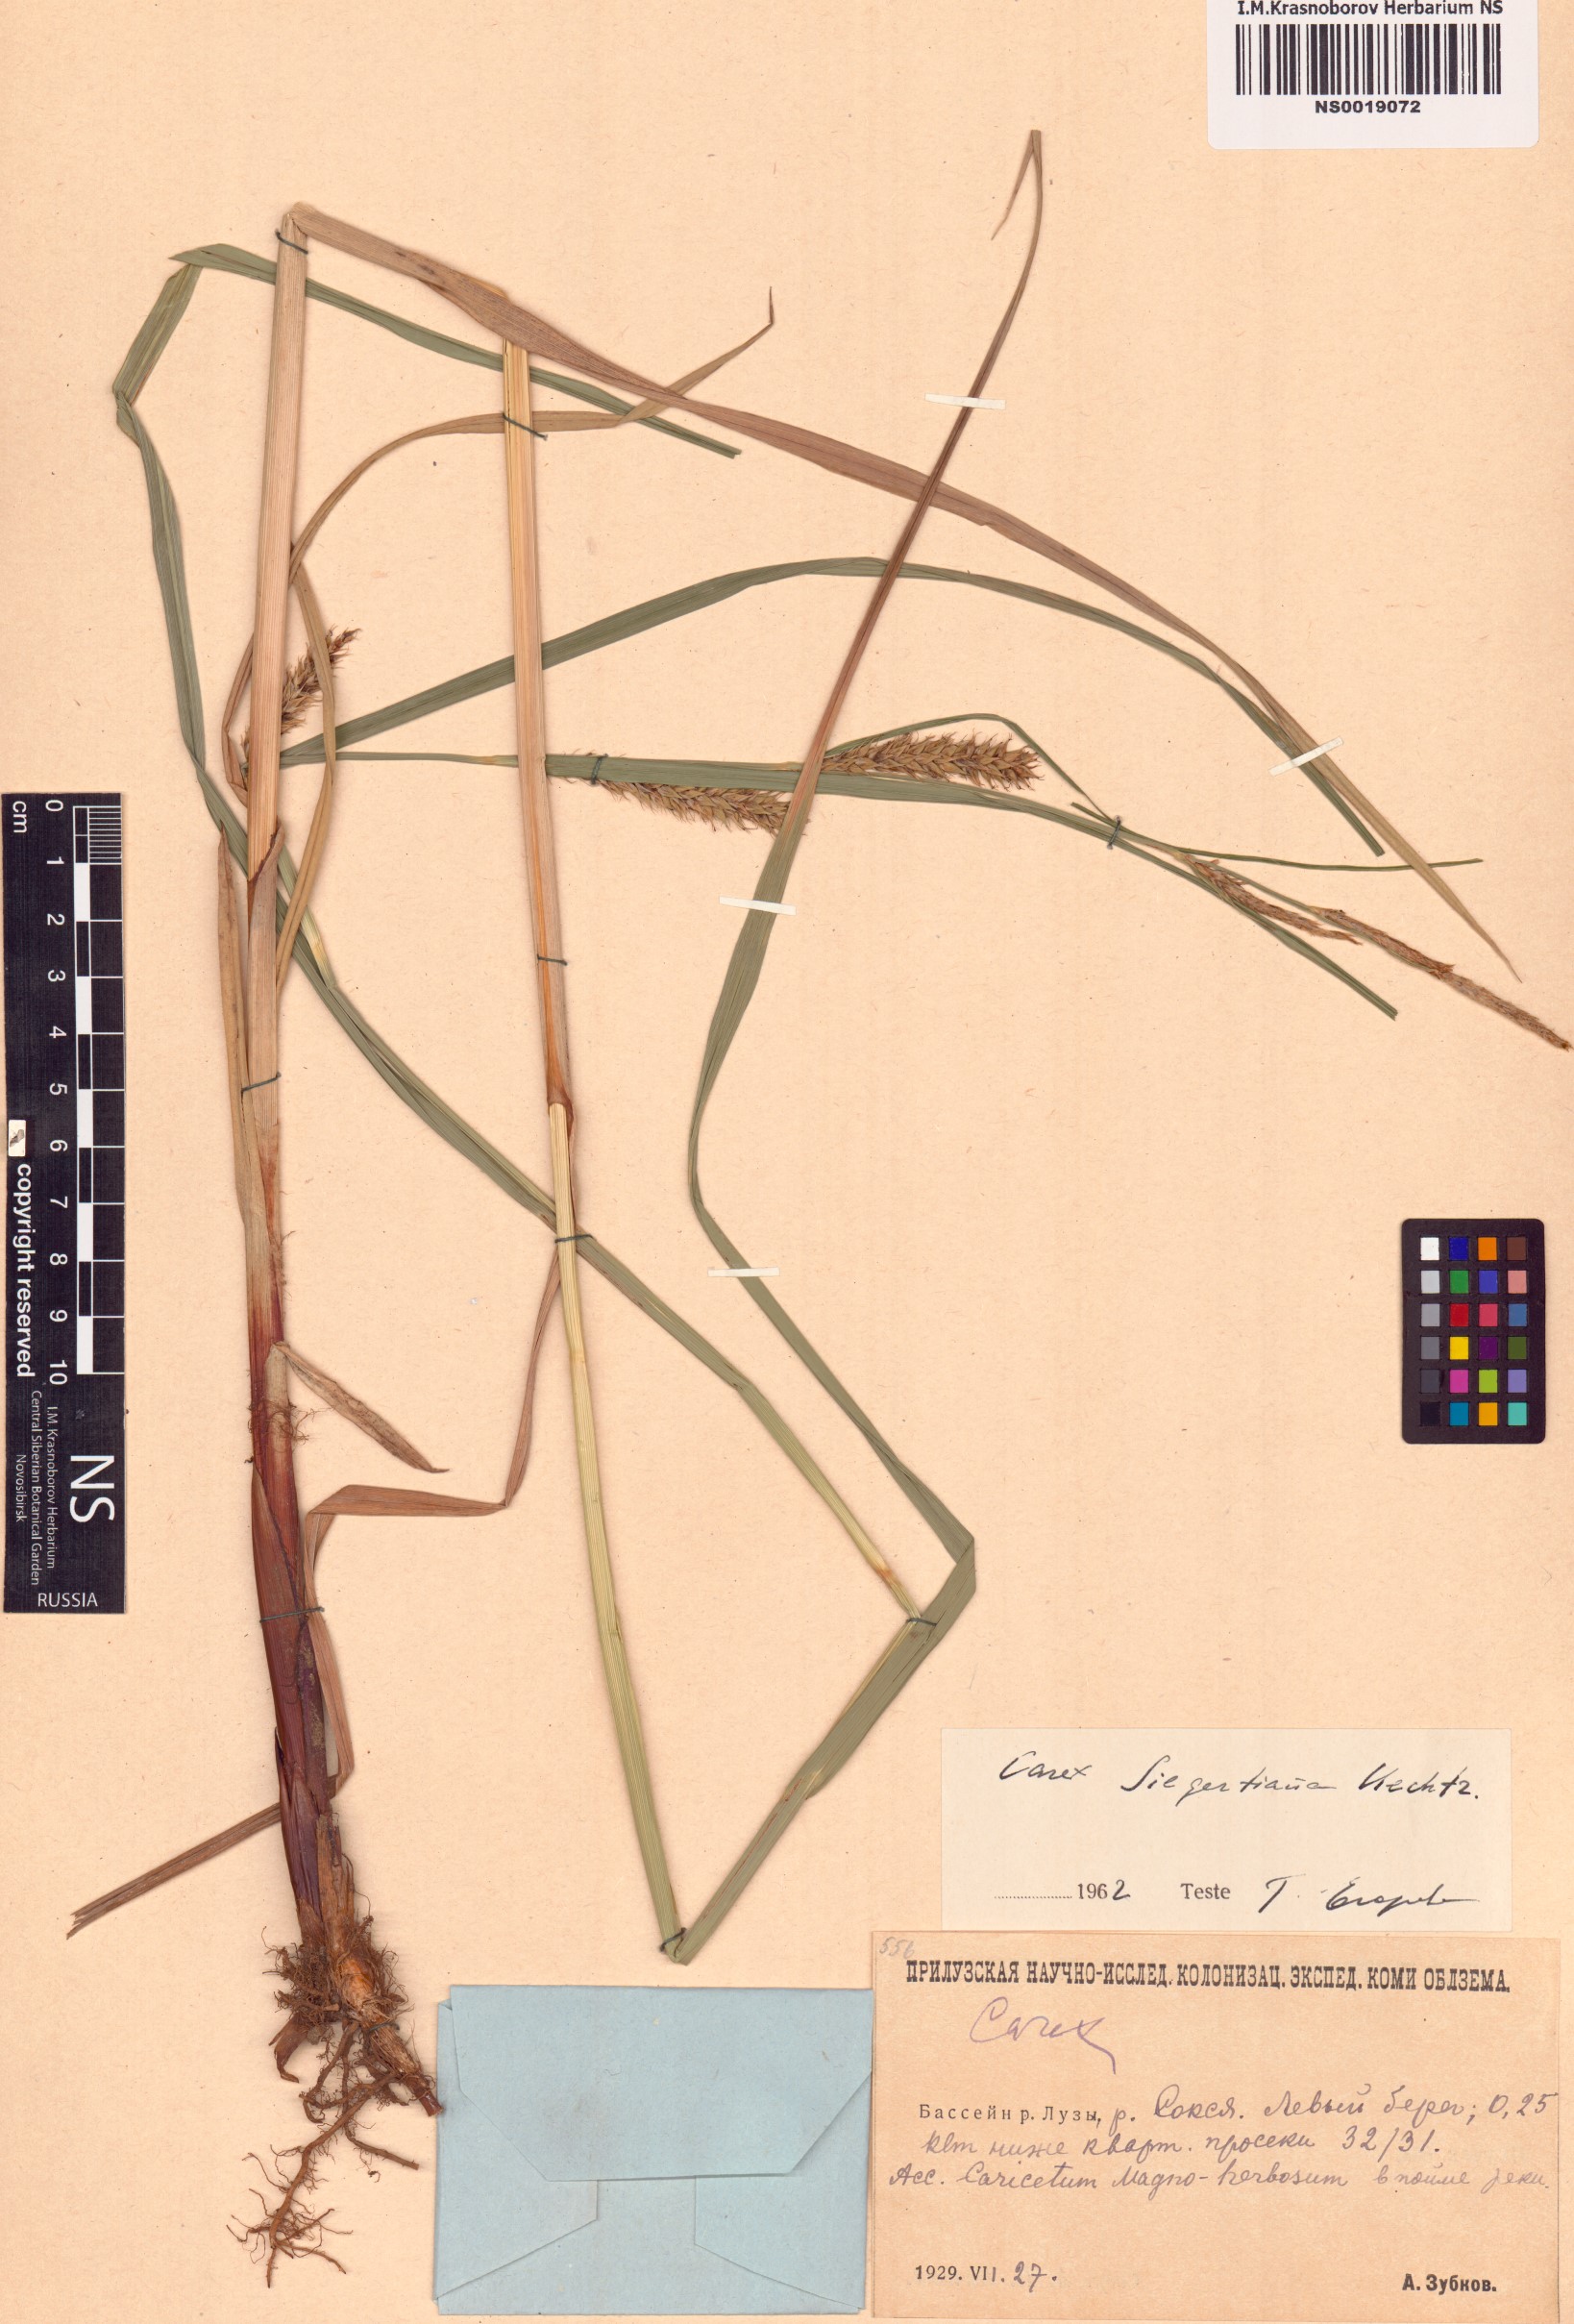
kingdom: Plantae
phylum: Tracheophyta
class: Liliopsida
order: Poales
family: Cyperaceae
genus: Carex
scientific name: Carex atherodes
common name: Wheat sedge
